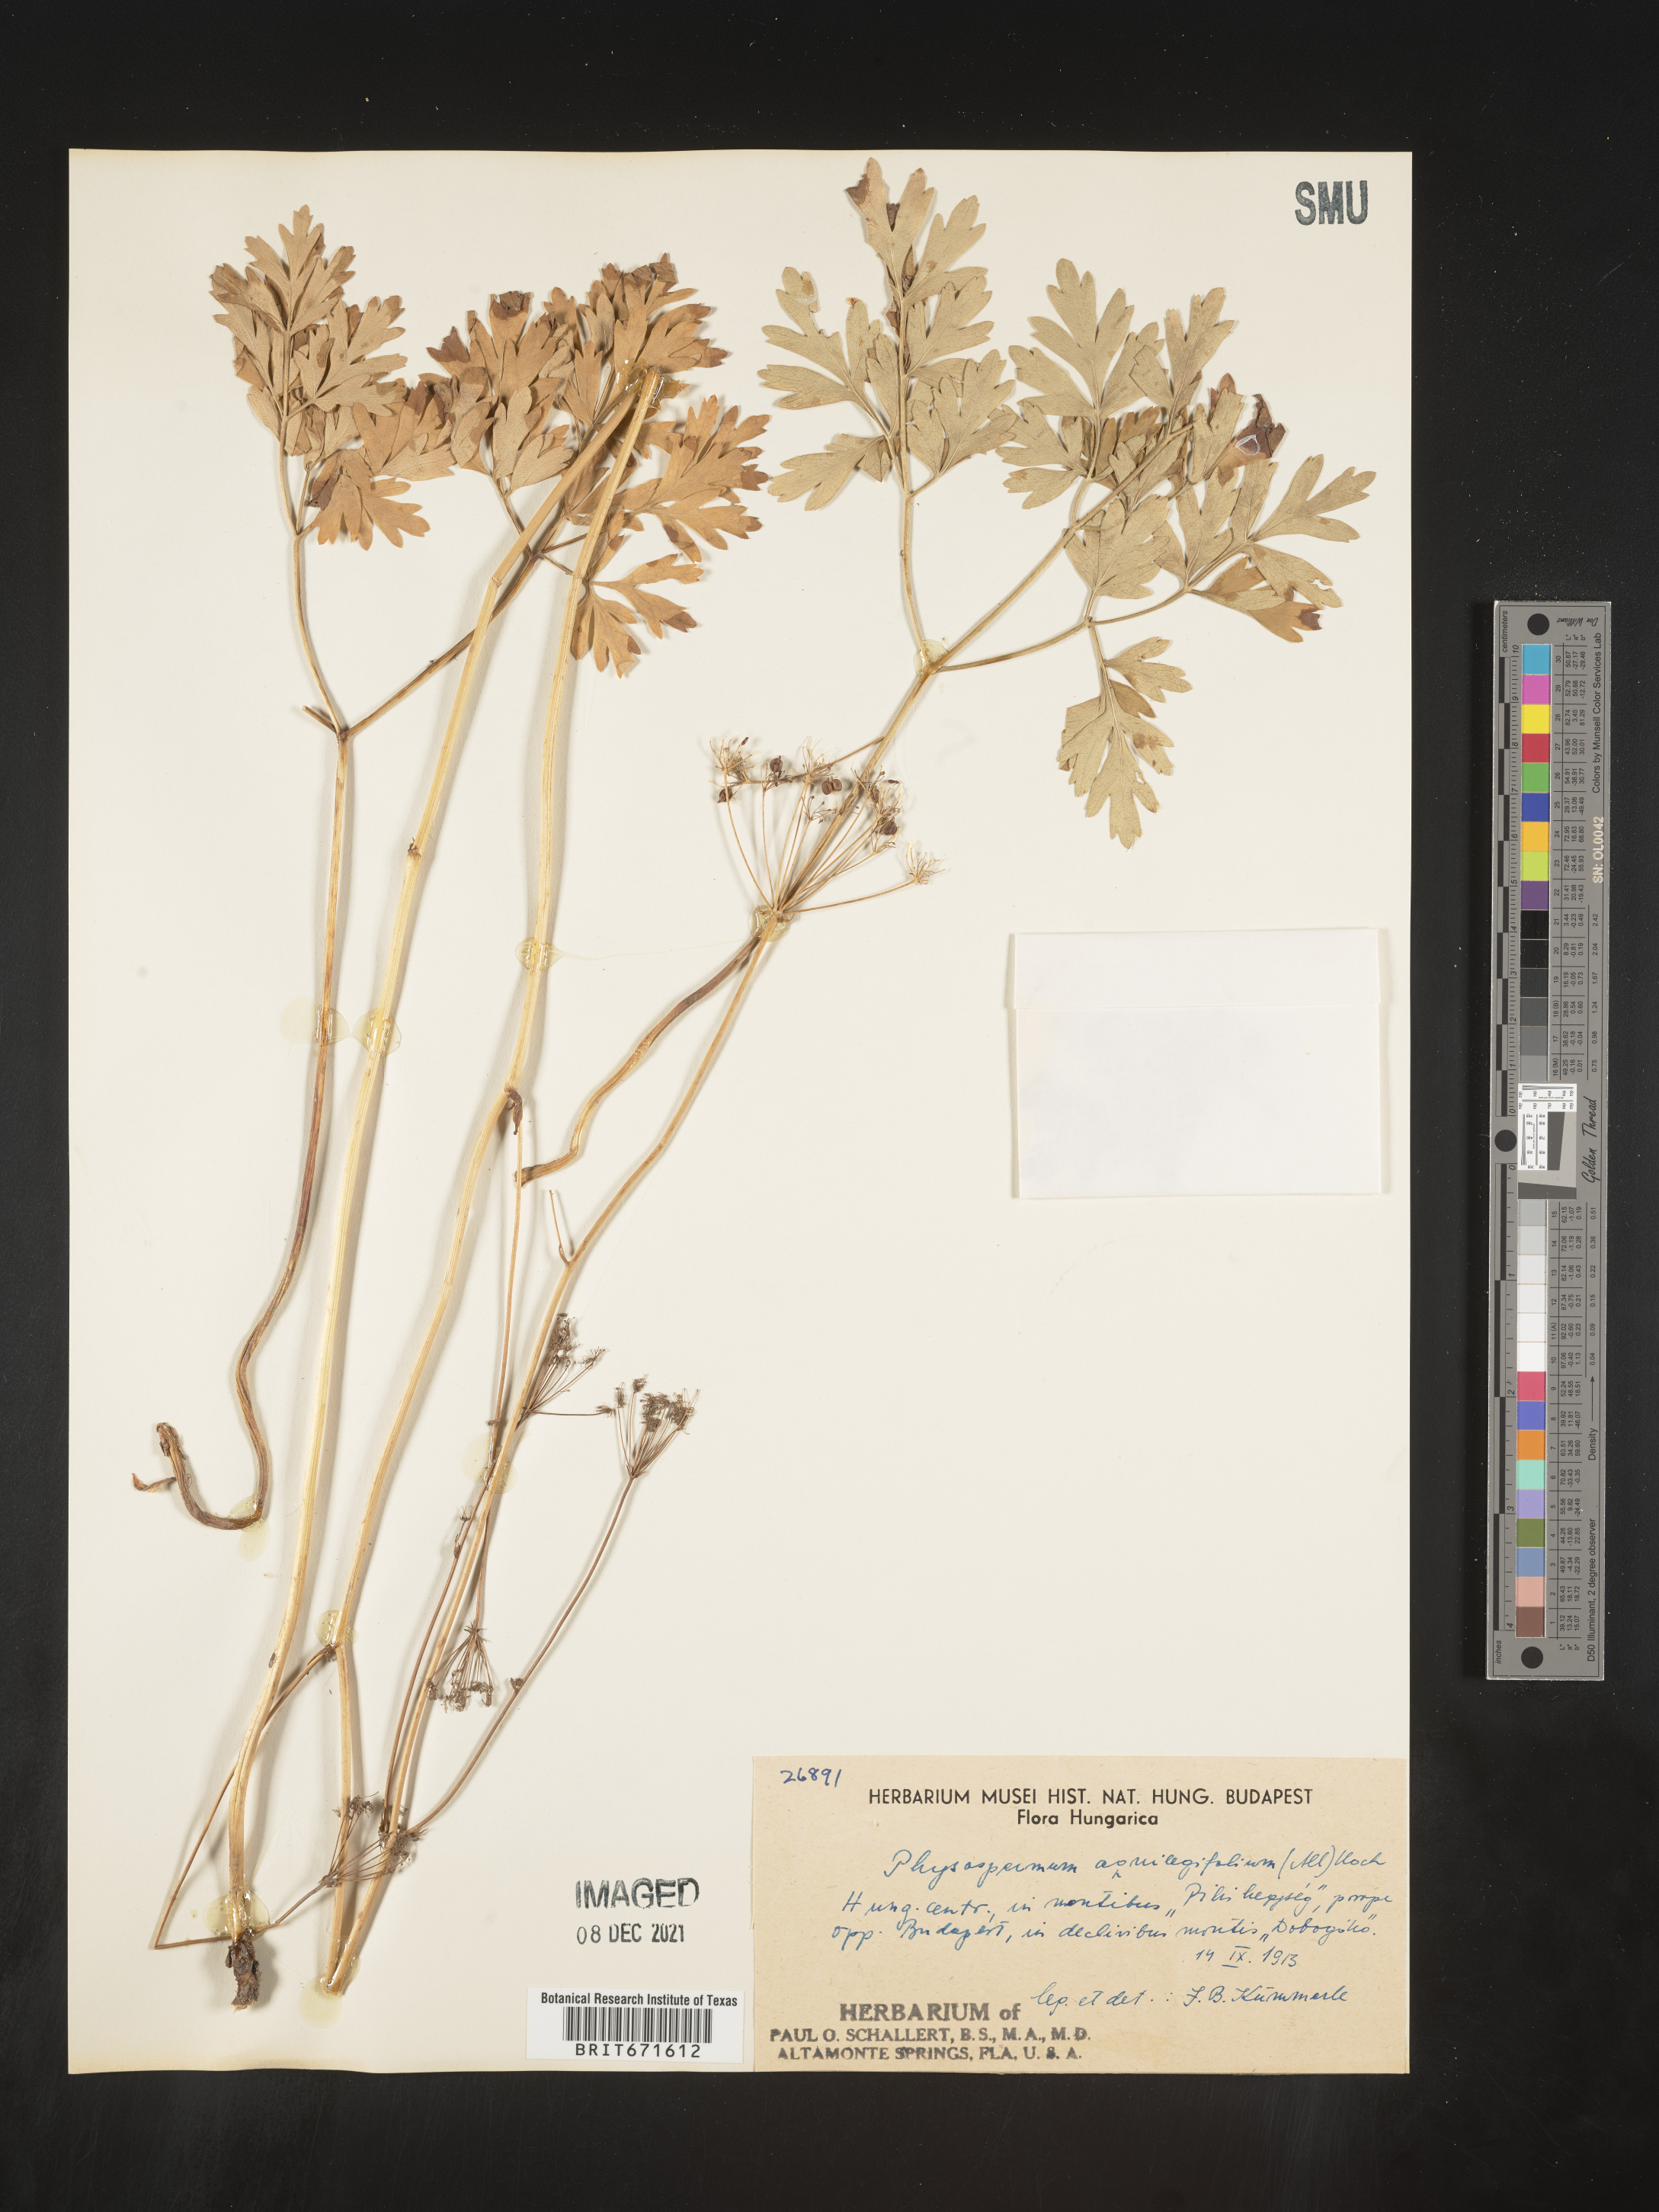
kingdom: Plantae
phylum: Tracheophyta
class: Magnoliopsida
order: Apiales
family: Apiaceae
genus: Physospermum
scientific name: Physospermum
